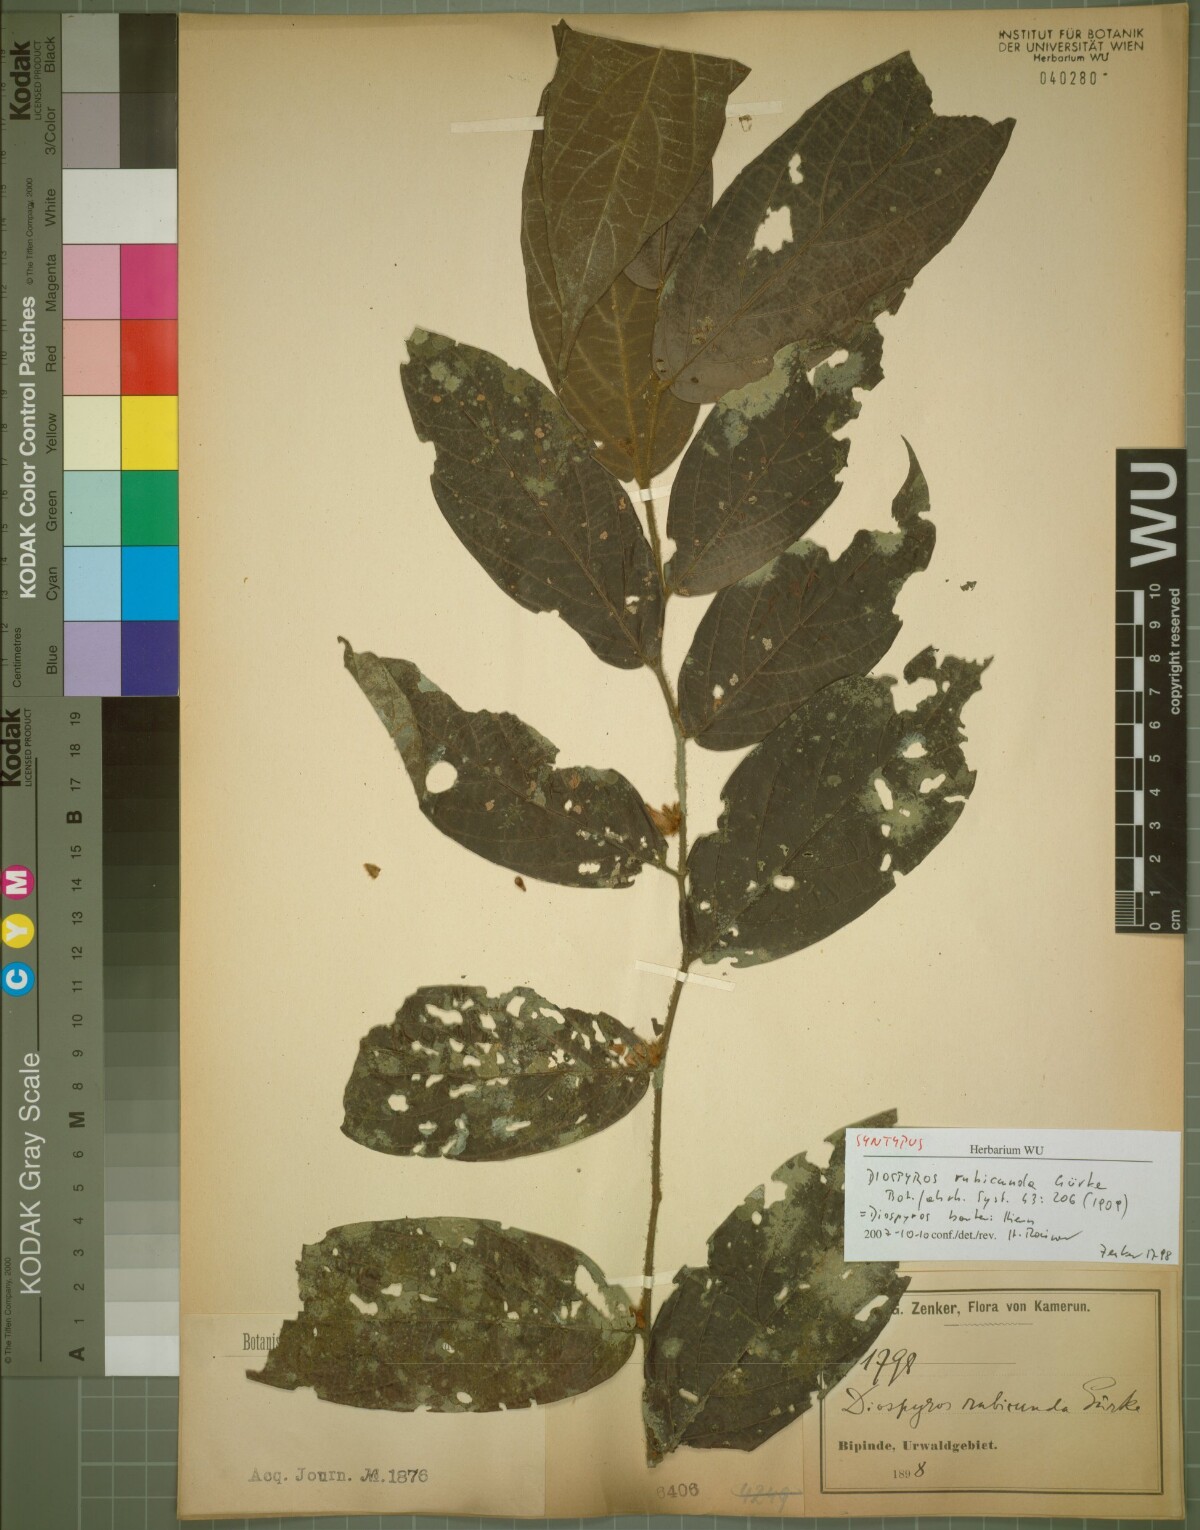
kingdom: Plantae
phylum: Tracheophyta
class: Magnoliopsida
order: Ericales
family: Ebenaceae
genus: Diospyros
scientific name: Diospyros rubicunda
